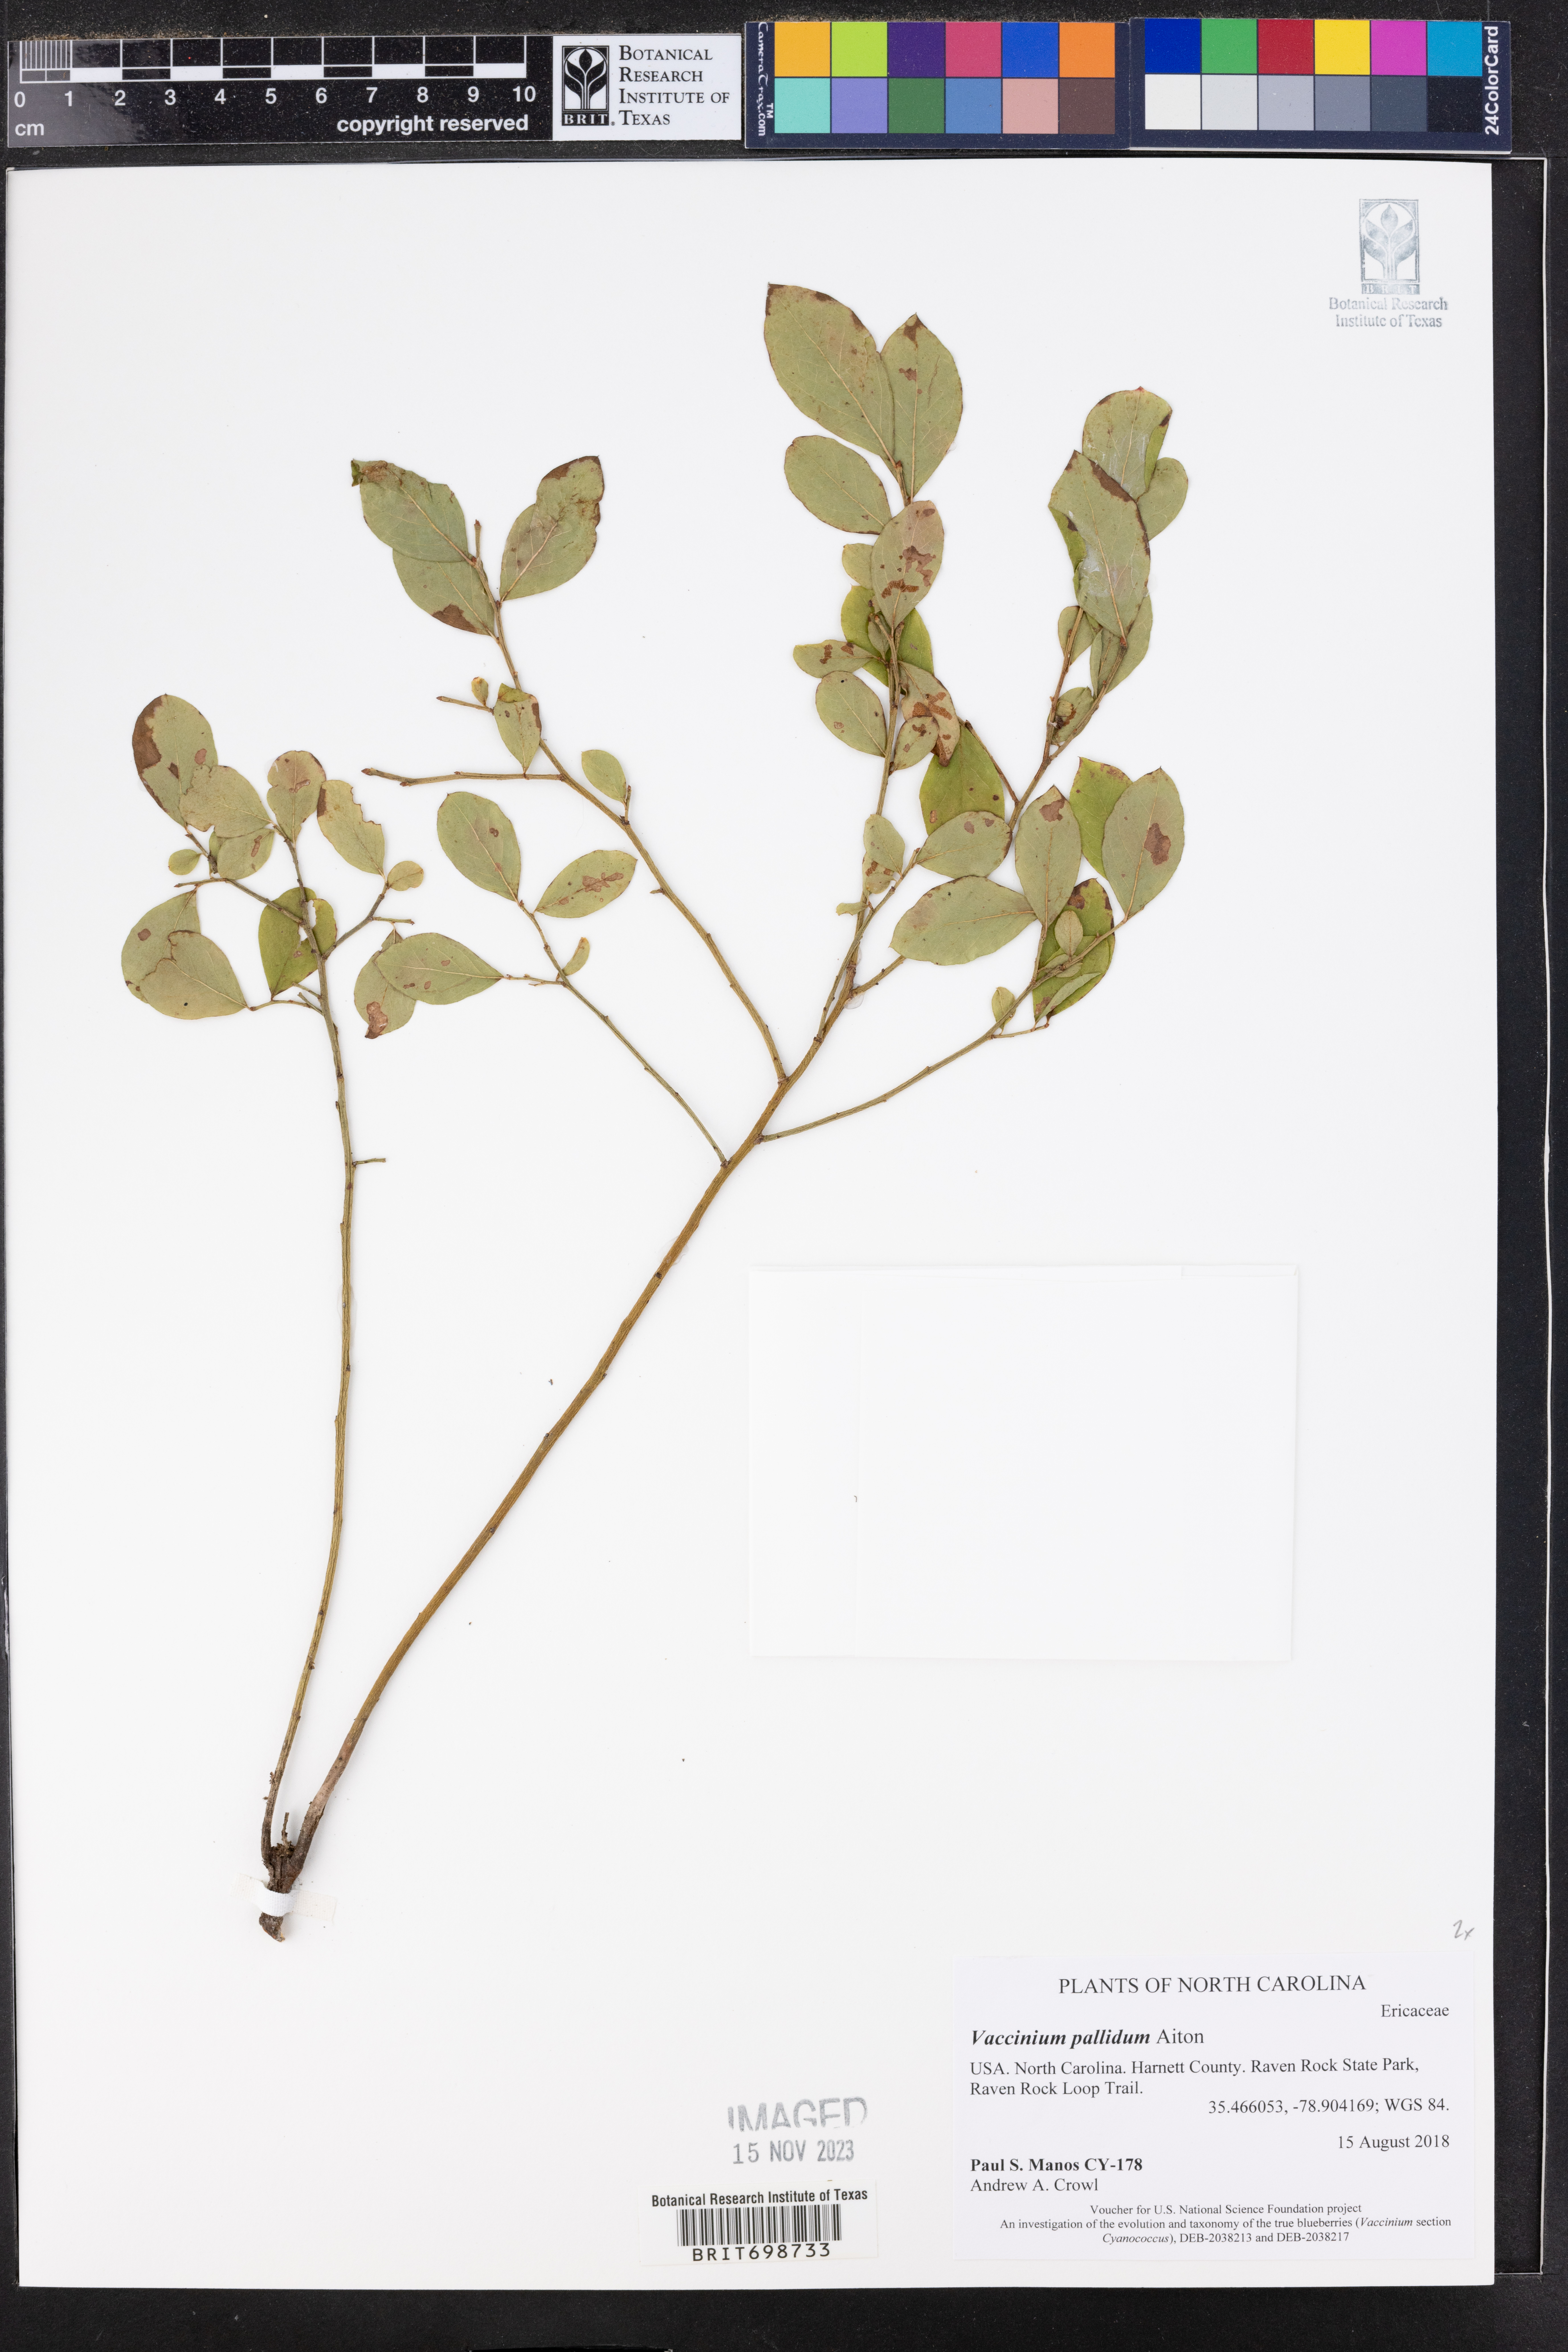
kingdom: Plantae
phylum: Tracheophyta
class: Magnoliopsida
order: Ericales
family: Ericaceae
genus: Vaccinium
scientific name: Vaccinium pallidum
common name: Blue ridge blueberry
